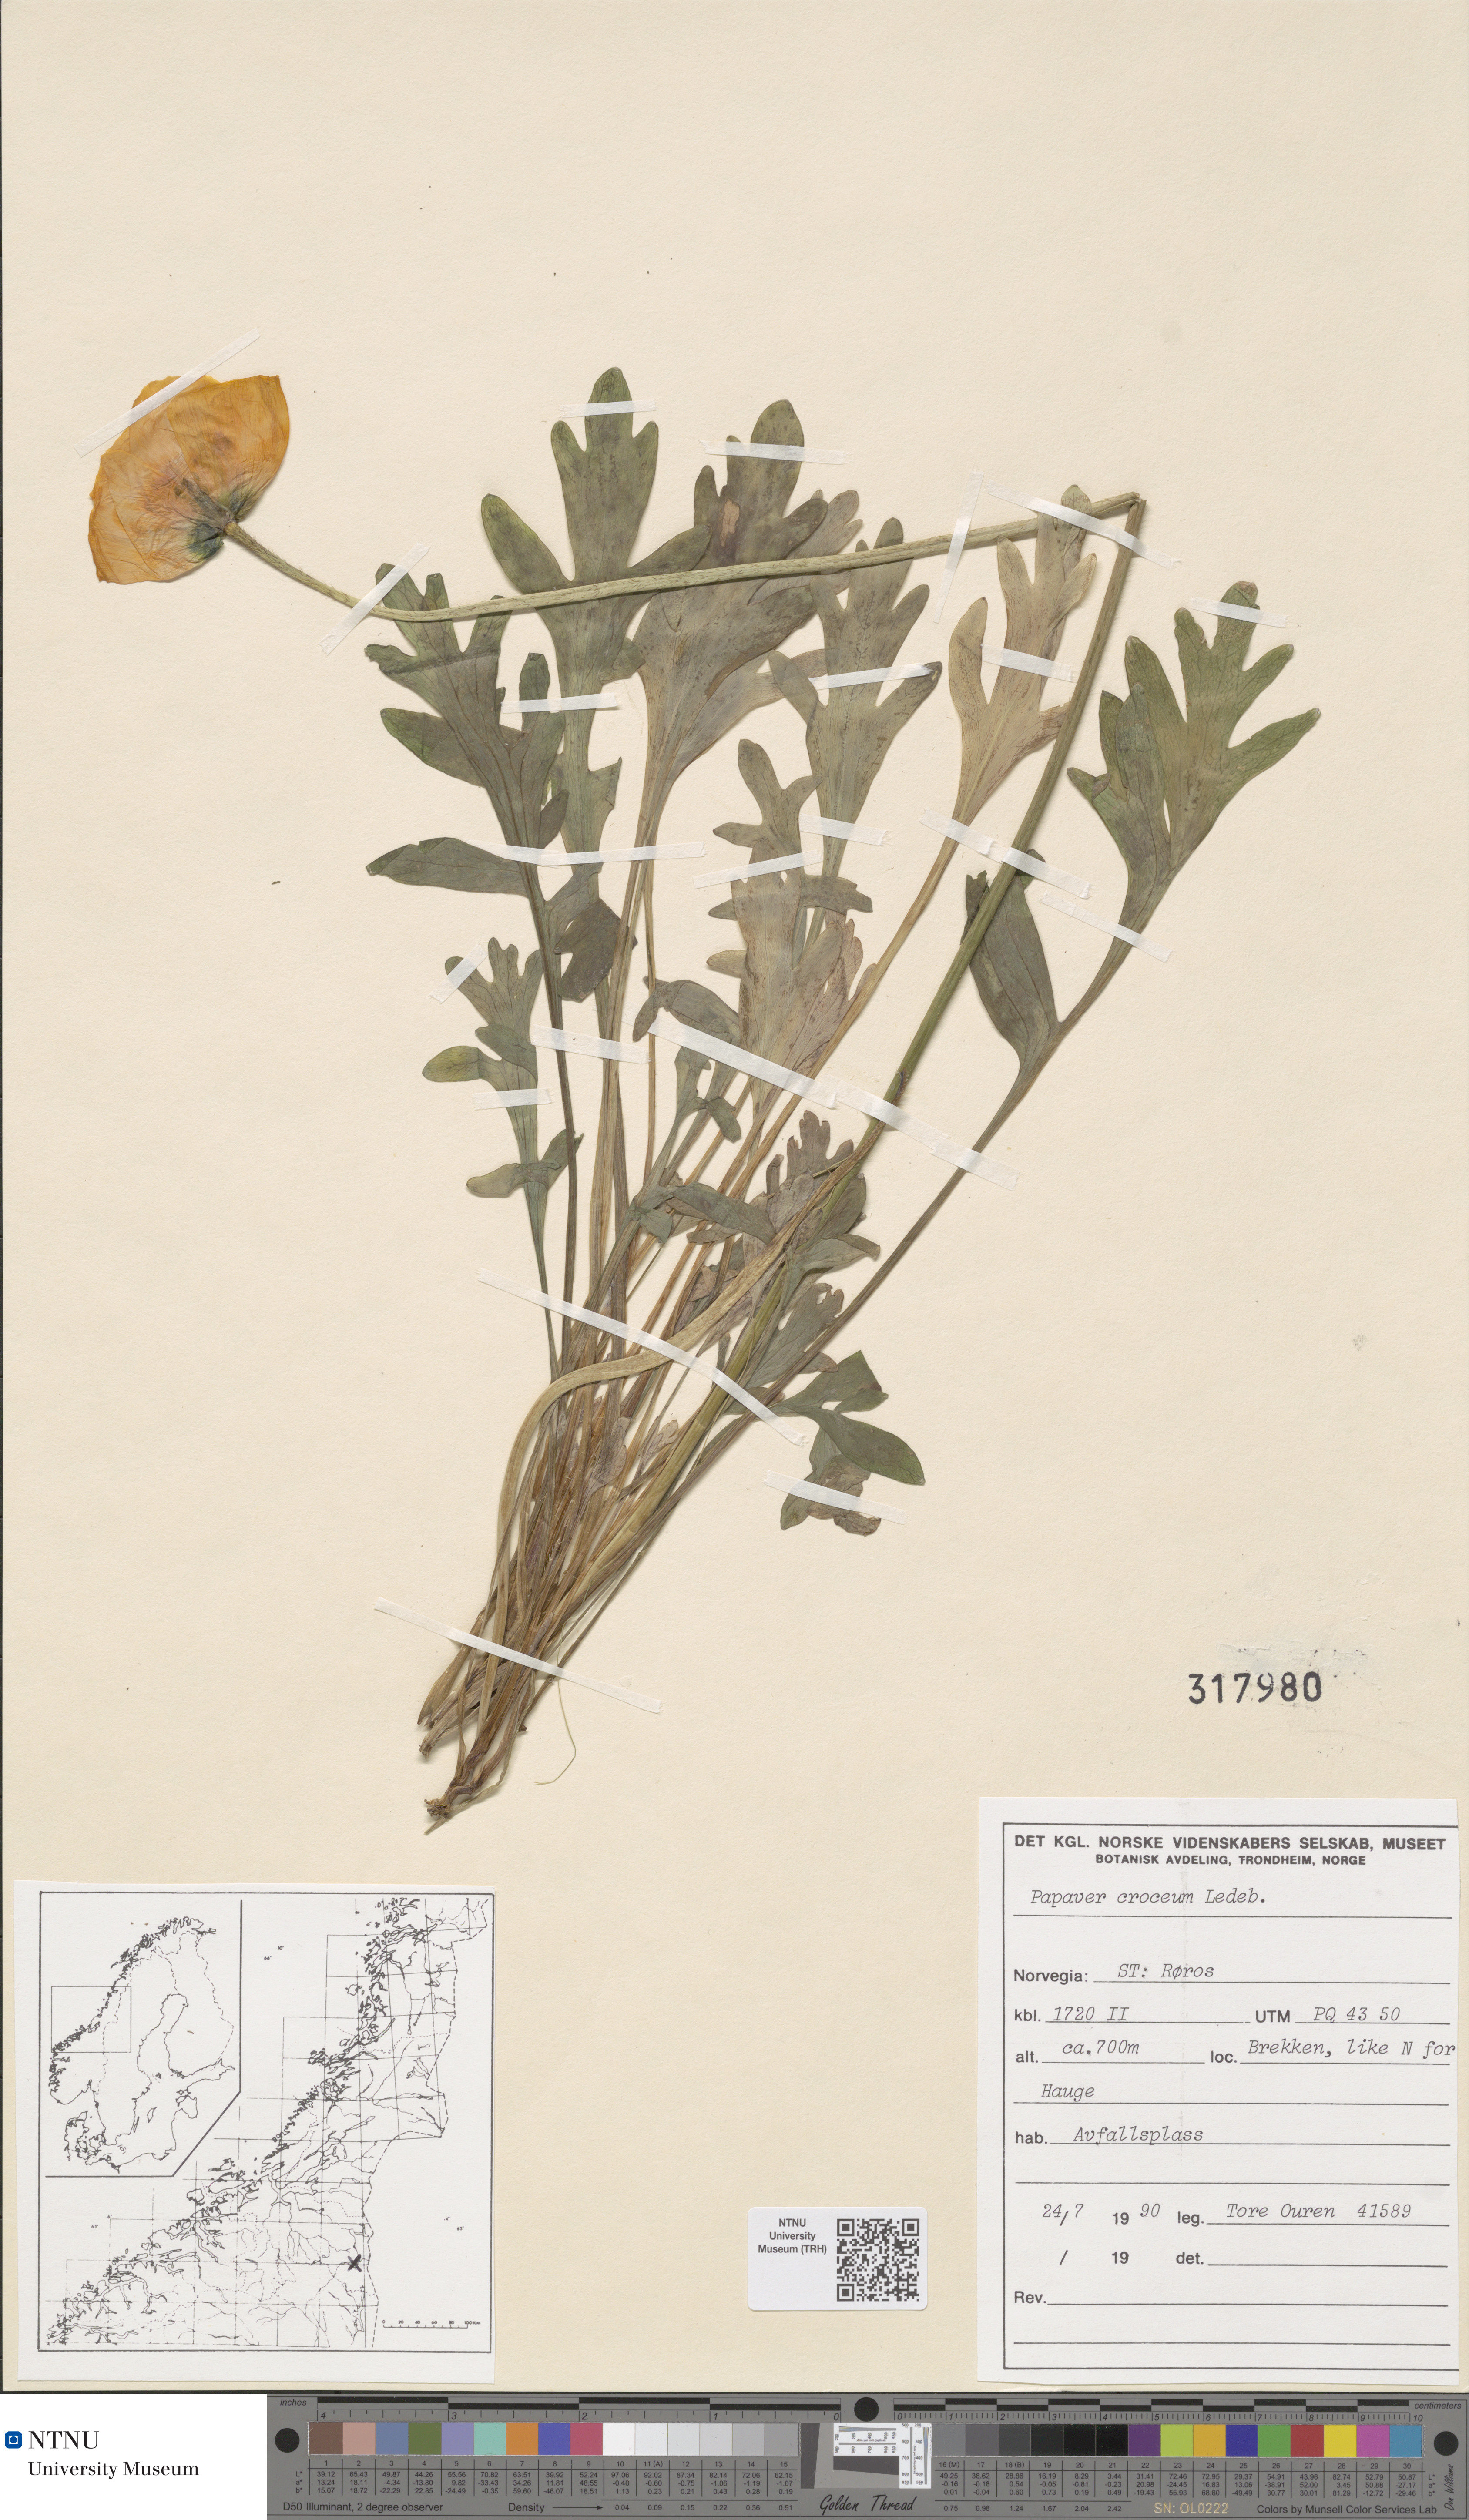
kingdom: Plantae
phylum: Tracheophyta
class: Magnoliopsida
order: Ranunculales
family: Papaveraceae
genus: Papaver
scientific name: Papaver croceum
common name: Siberian poppy
